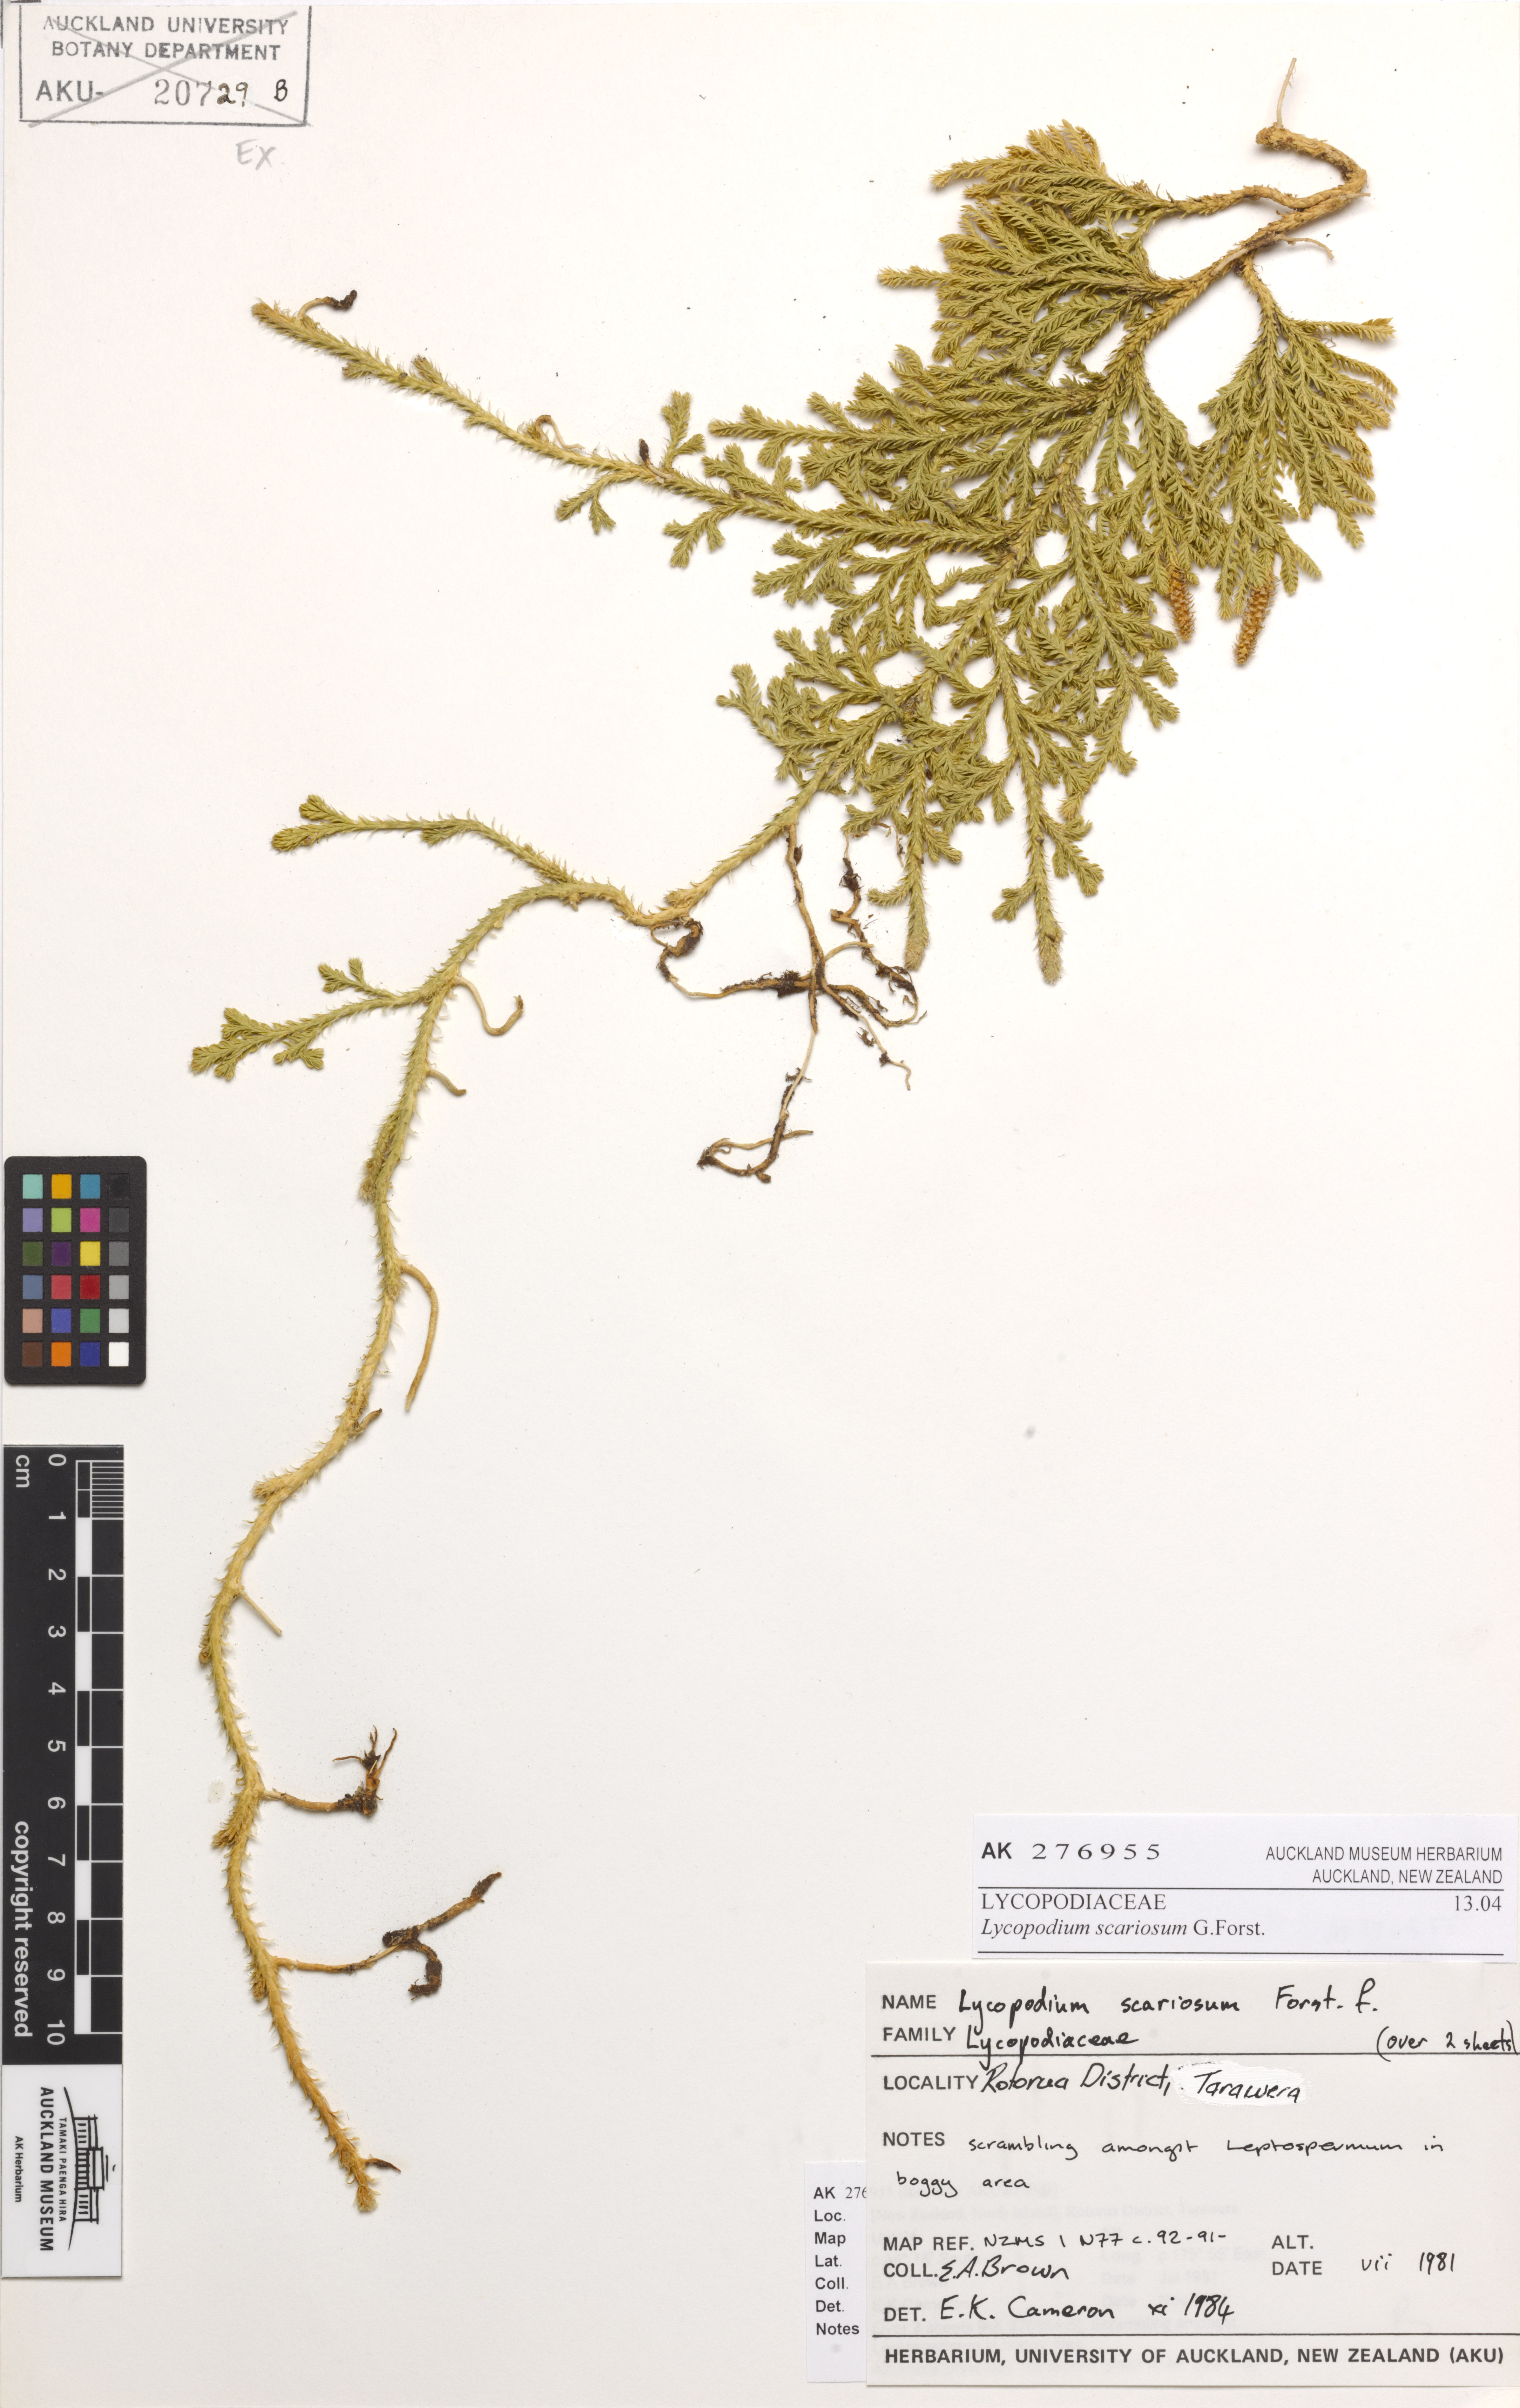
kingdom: Plantae
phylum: Tracheophyta
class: Lycopodiopsida
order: Lycopodiales
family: Lycopodiaceae
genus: Diphasium
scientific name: Diphasium scariosum
